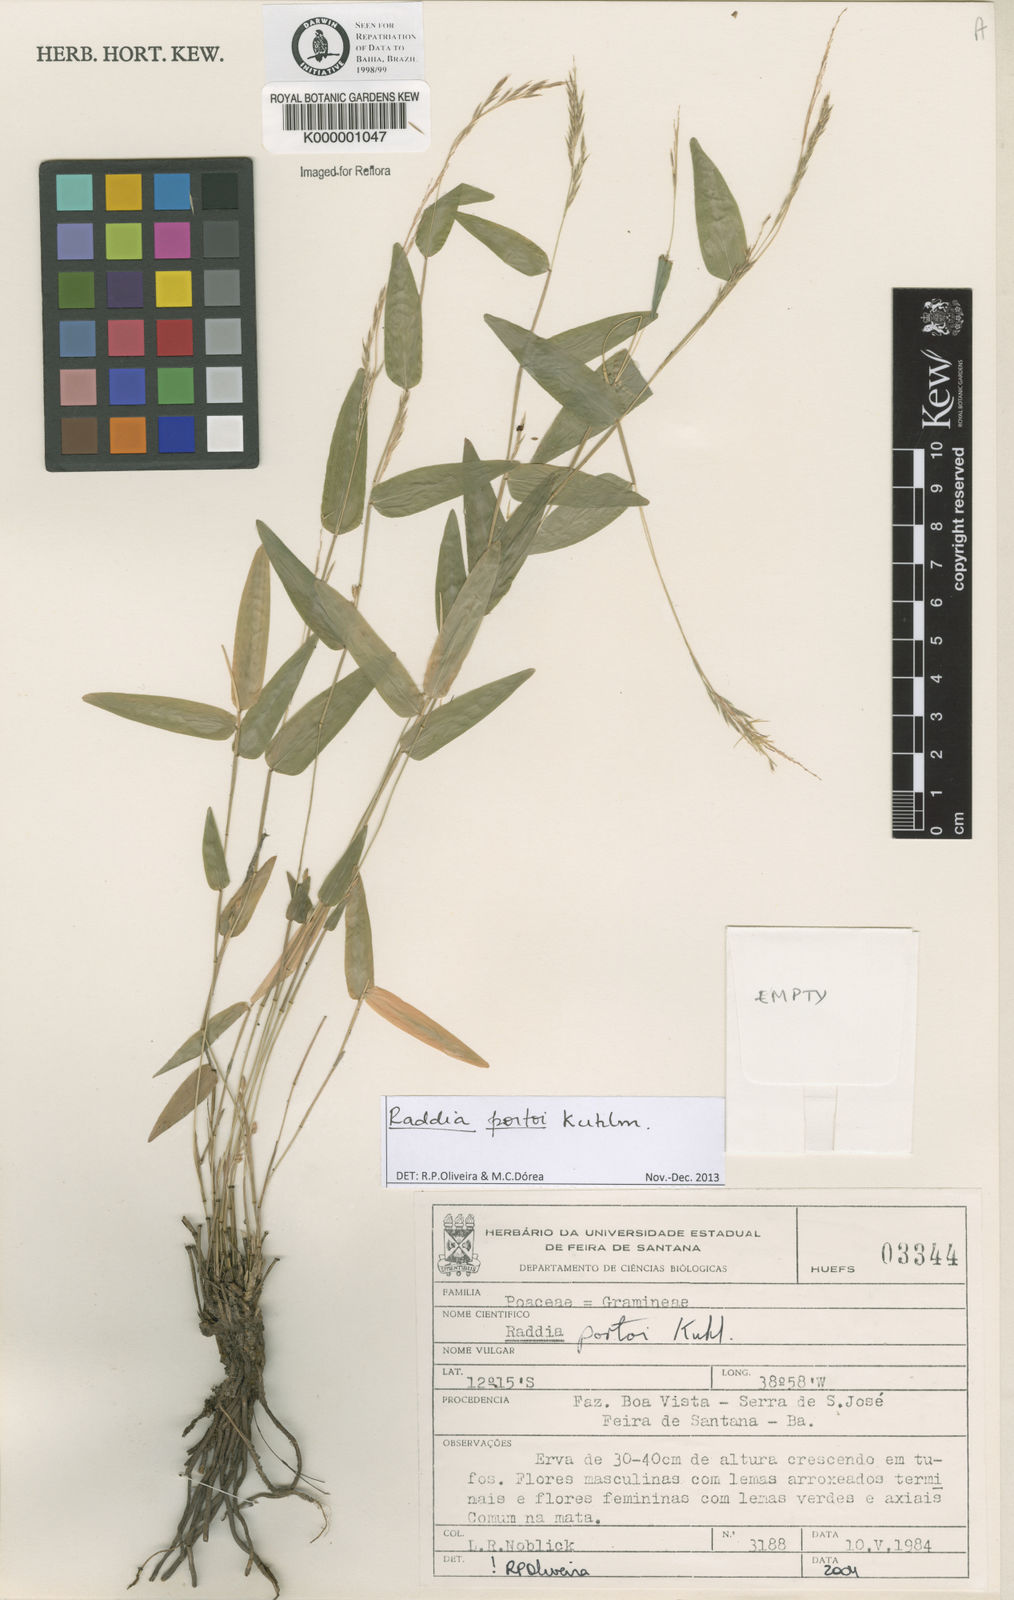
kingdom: Plantae
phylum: Tracheophyta
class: Liliopsida
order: Poales
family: Poaceae
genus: Raddia
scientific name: Raddia portoi
